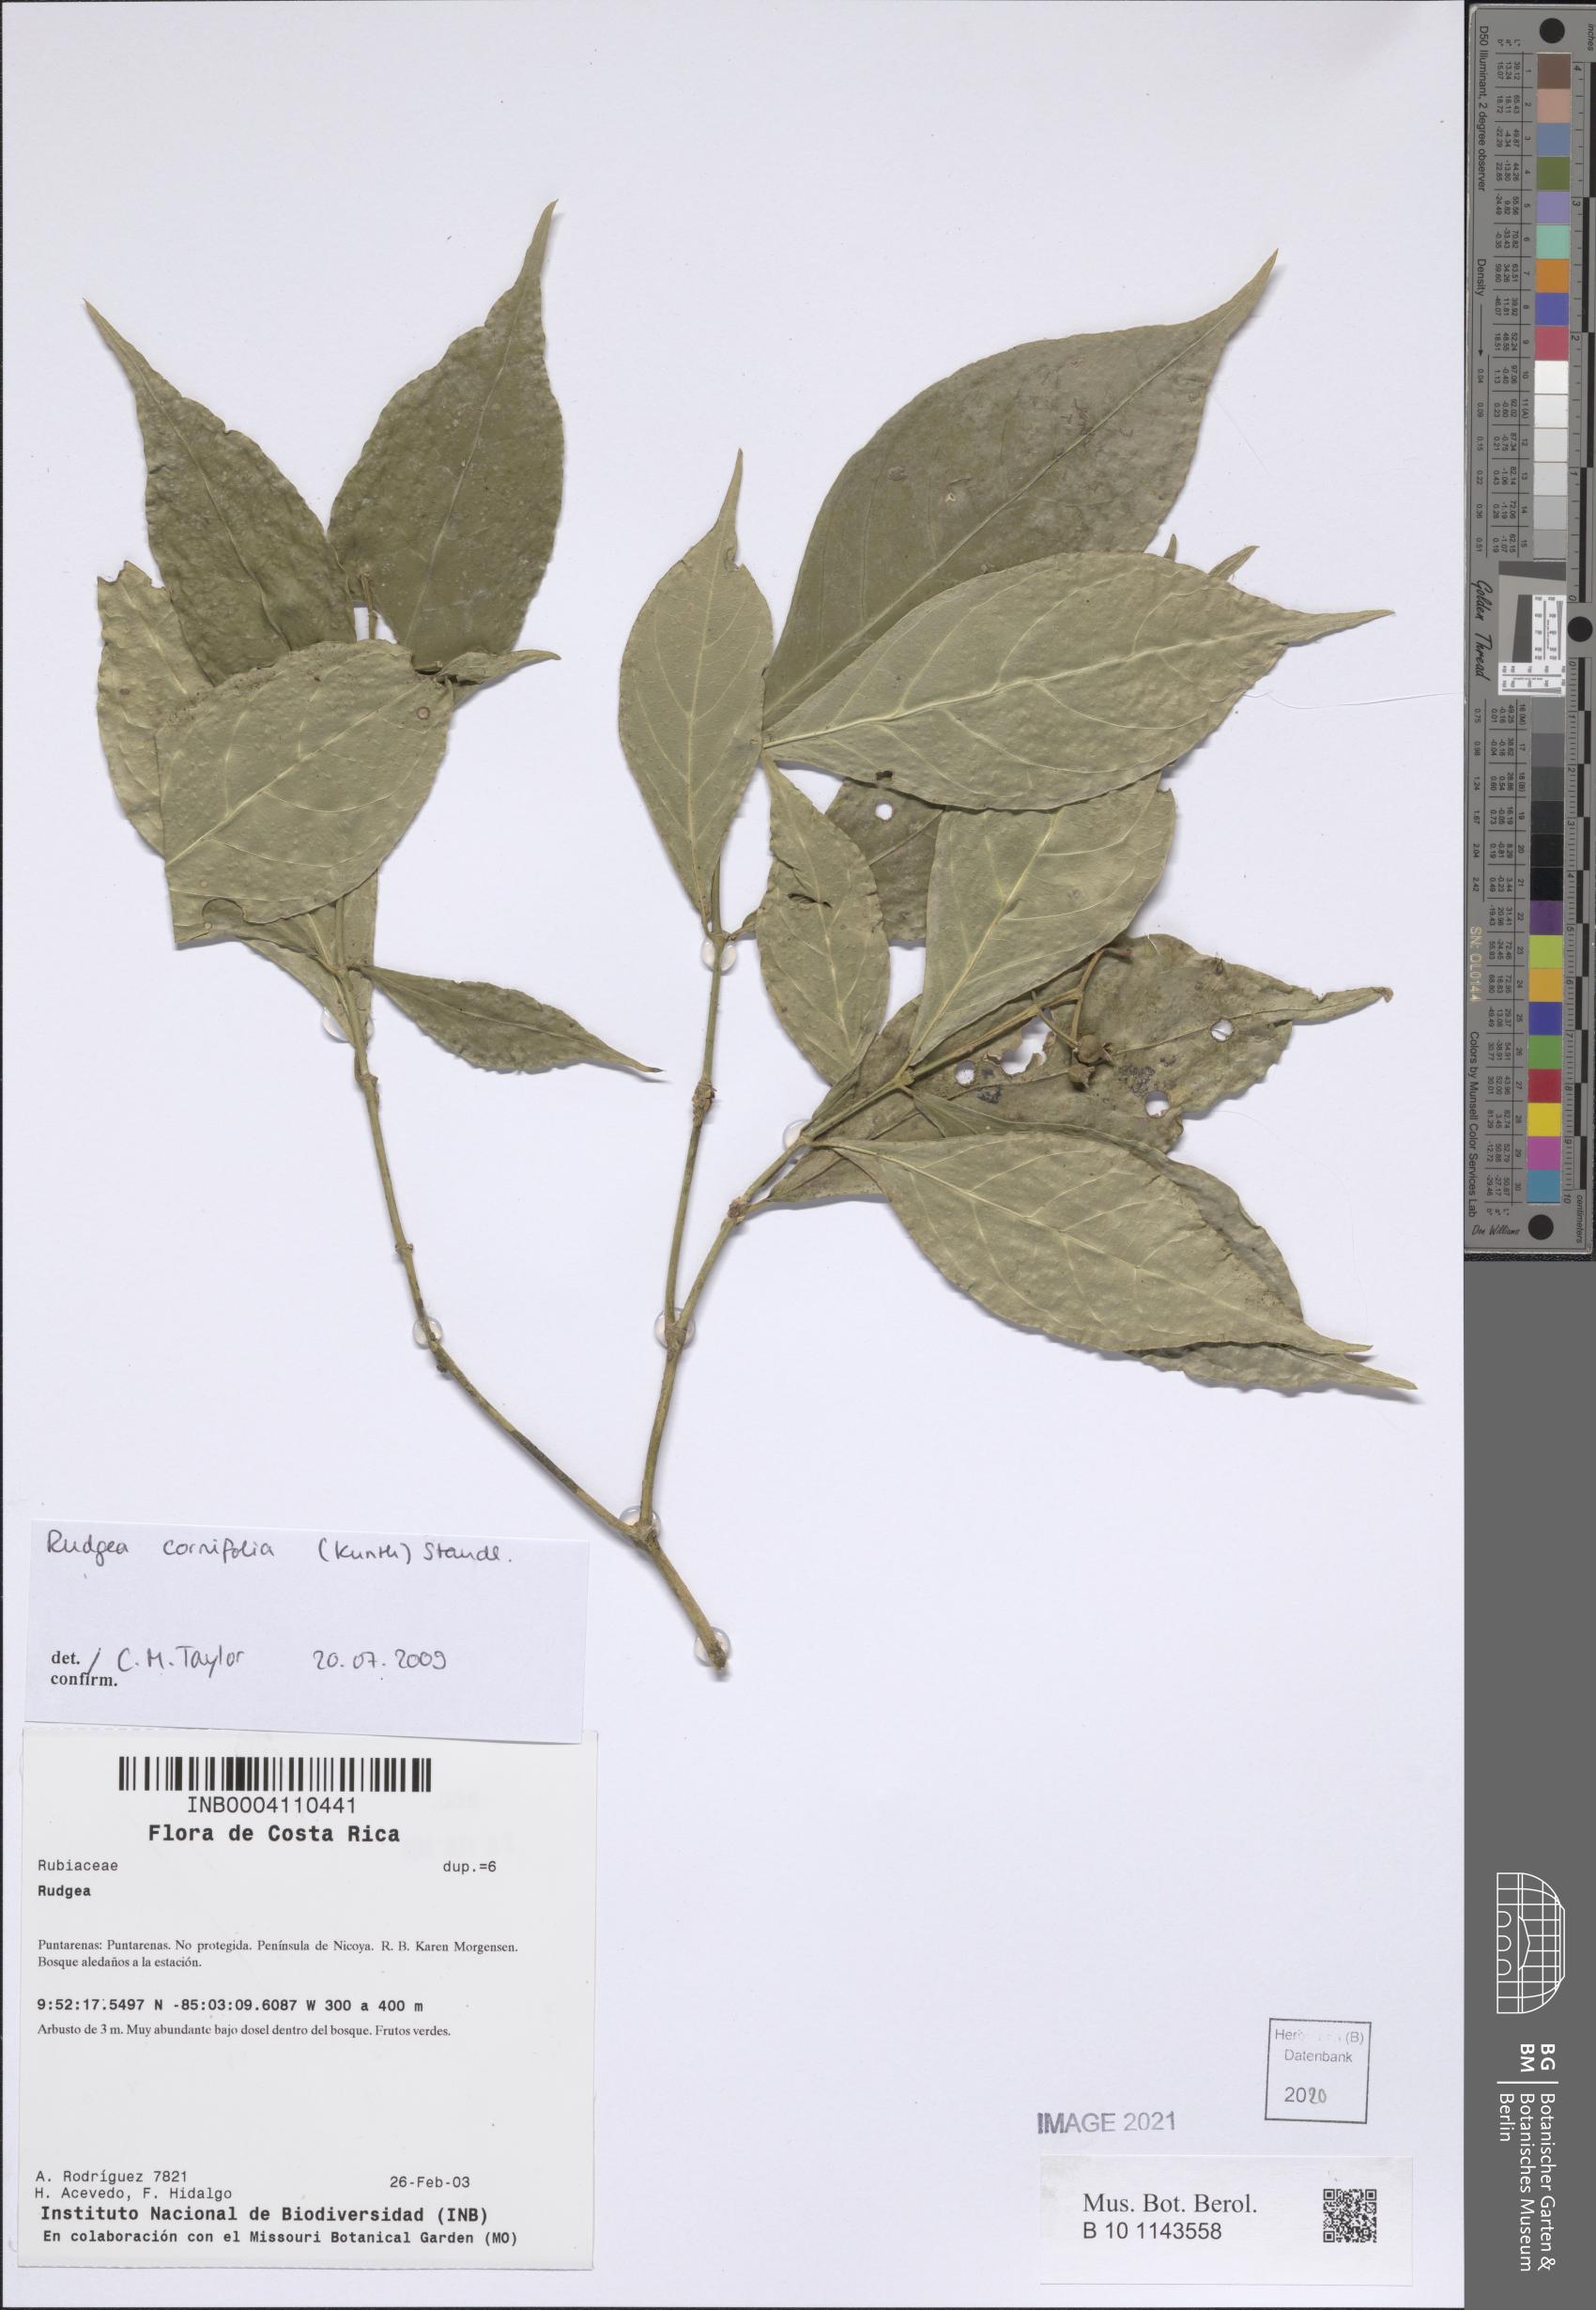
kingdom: Plantae
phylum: Tracheophyta
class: Magnoliopsida
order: Gentianales
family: Rubiaceae
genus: Rudgea
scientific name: Rudgea cornifolia
